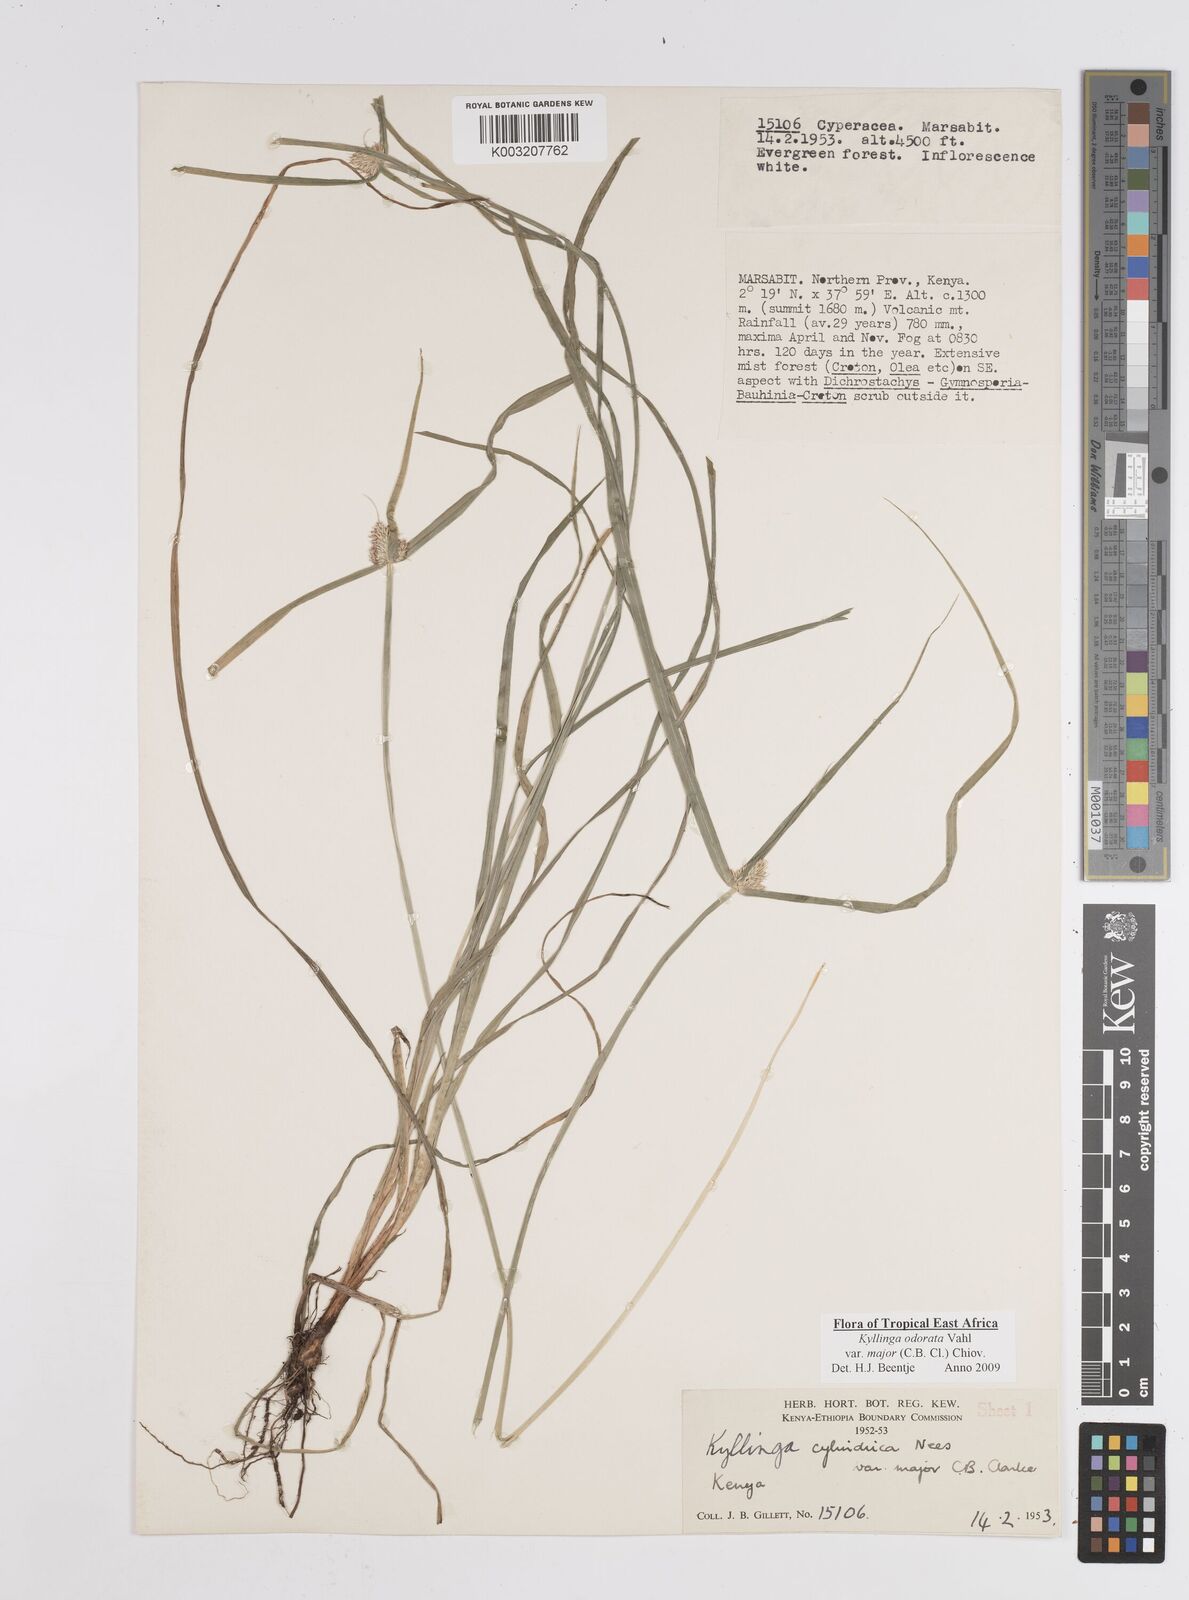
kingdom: Plantae
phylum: Tracheophyta
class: Liliopsida
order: Poales
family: Cyperaceae
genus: Cyperus
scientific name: Cyperus
